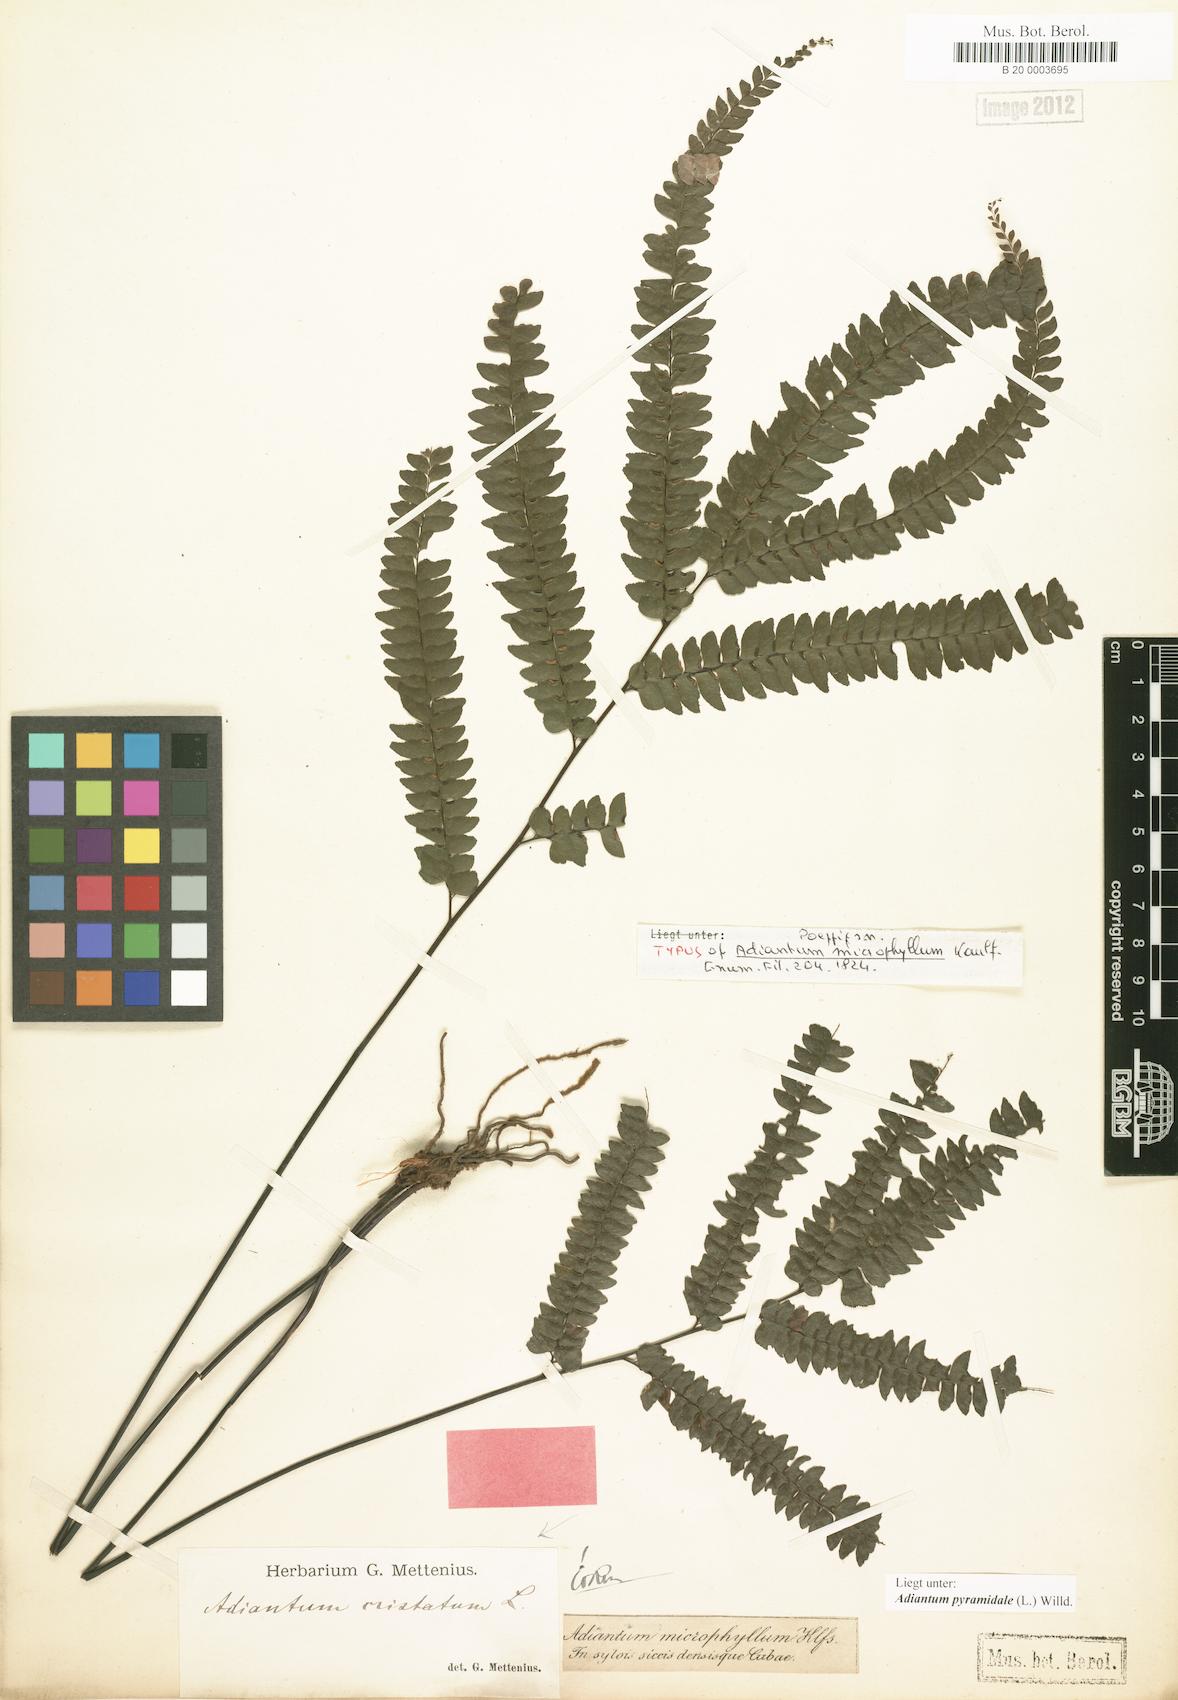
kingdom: Plantae
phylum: Tracheophyta
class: Polypodiopsida
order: Polypodiales
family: Pteridaceae
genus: Adiantum
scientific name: Adiantum pyramidale
